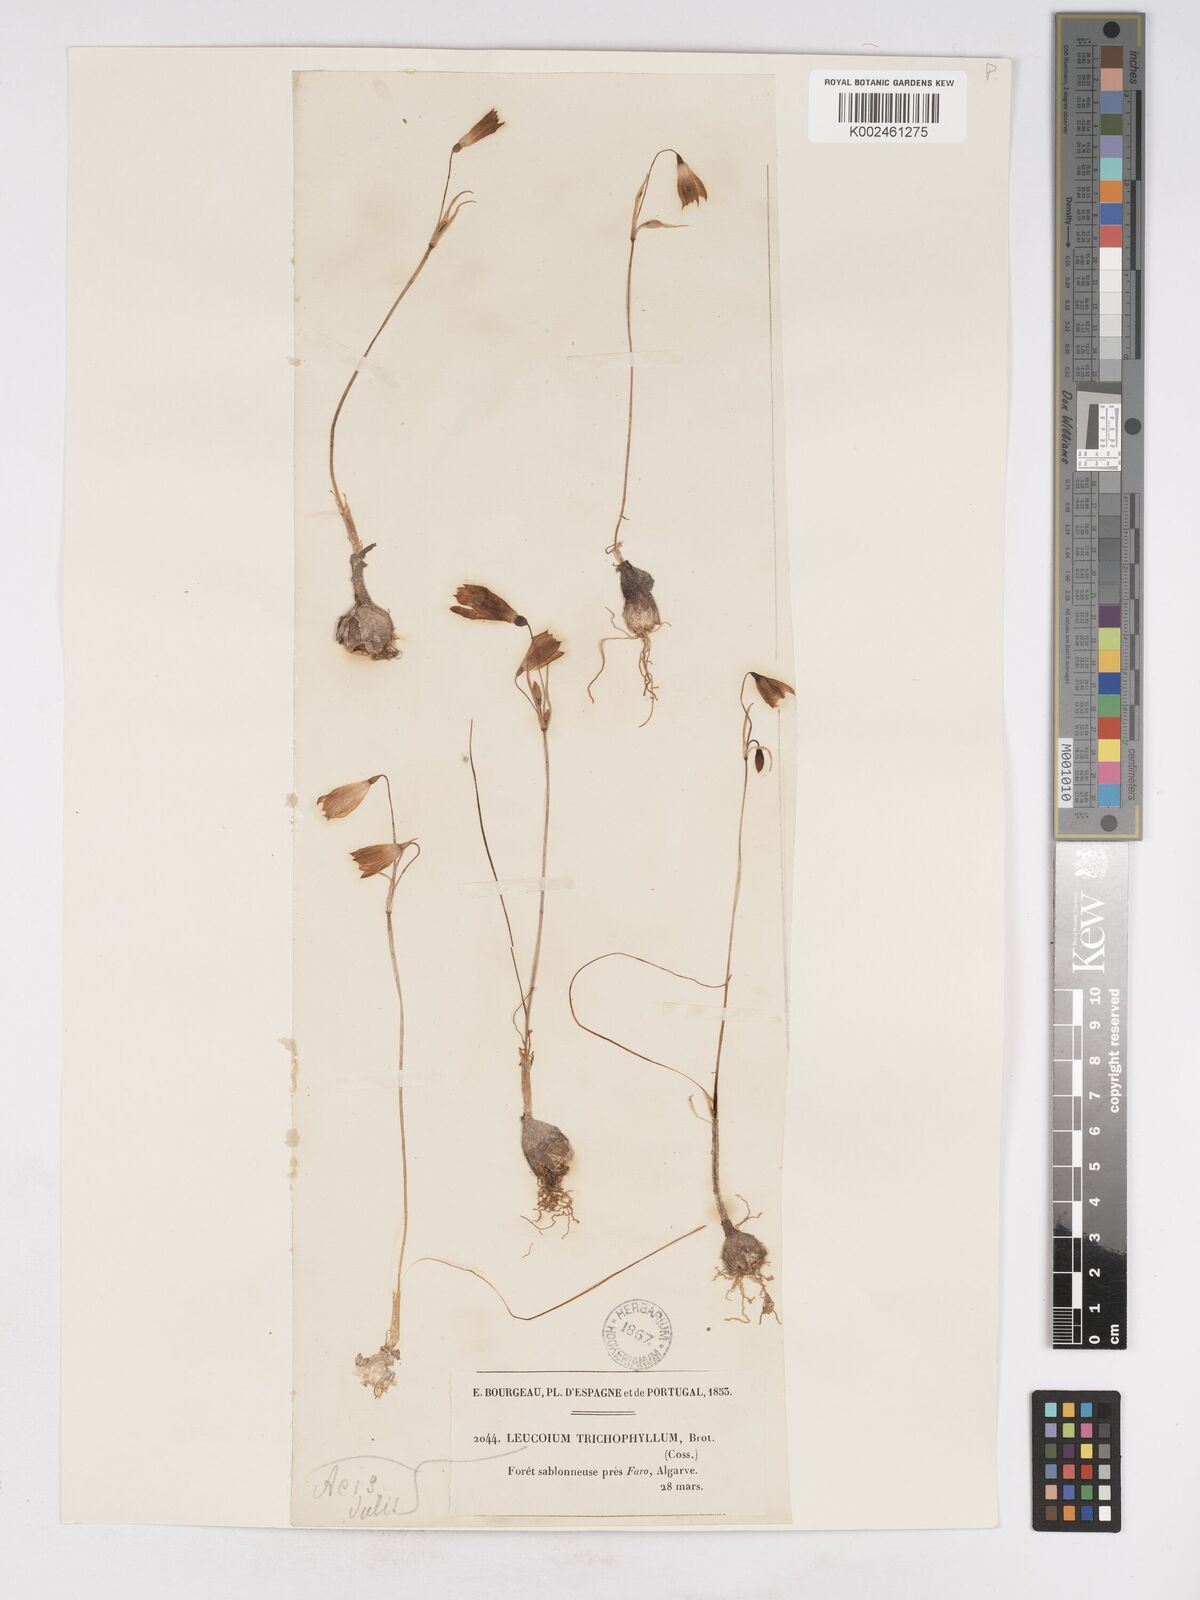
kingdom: Plantae
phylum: Tracheophyta
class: Liliopsida
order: Asparagales
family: Amaryllidaceae
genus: Acis
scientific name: Acis trichophylla
